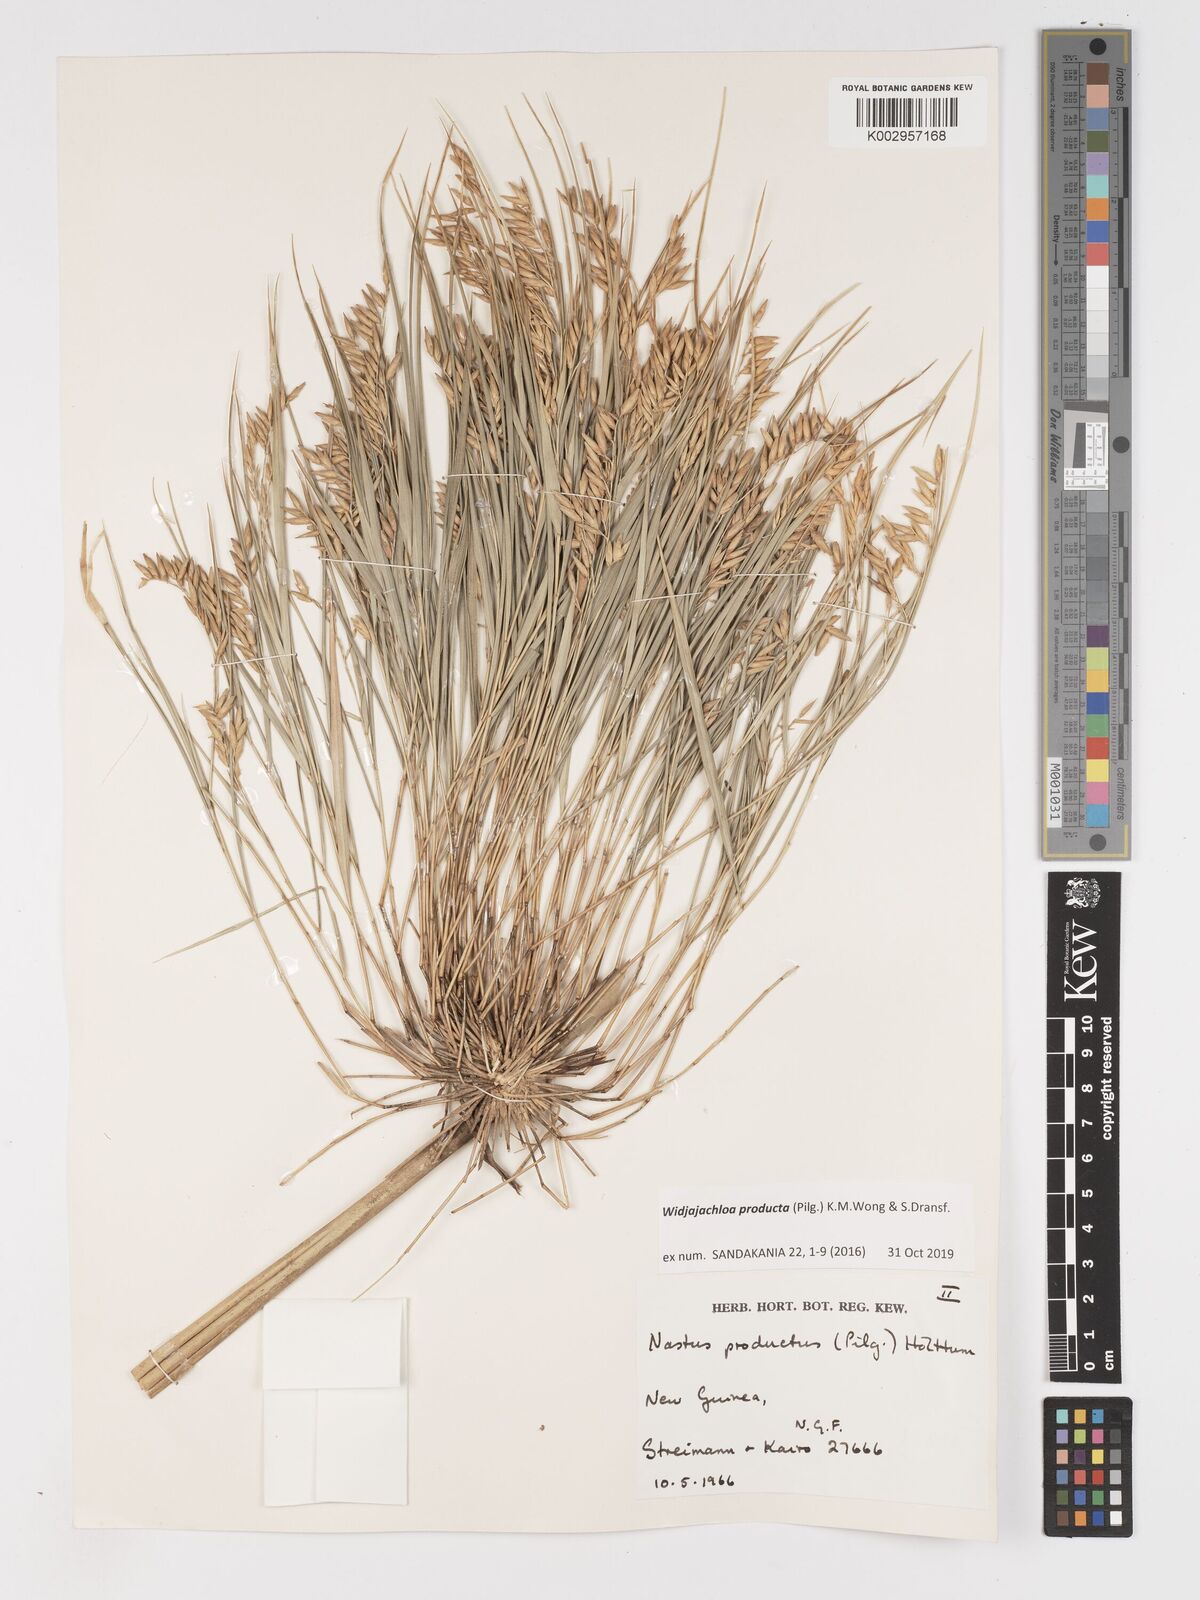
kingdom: Plantae
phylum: Tracheophyta
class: Liliopsida
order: Poales
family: Poaceae
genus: Widjajachloa
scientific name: Widjajachloa producta
